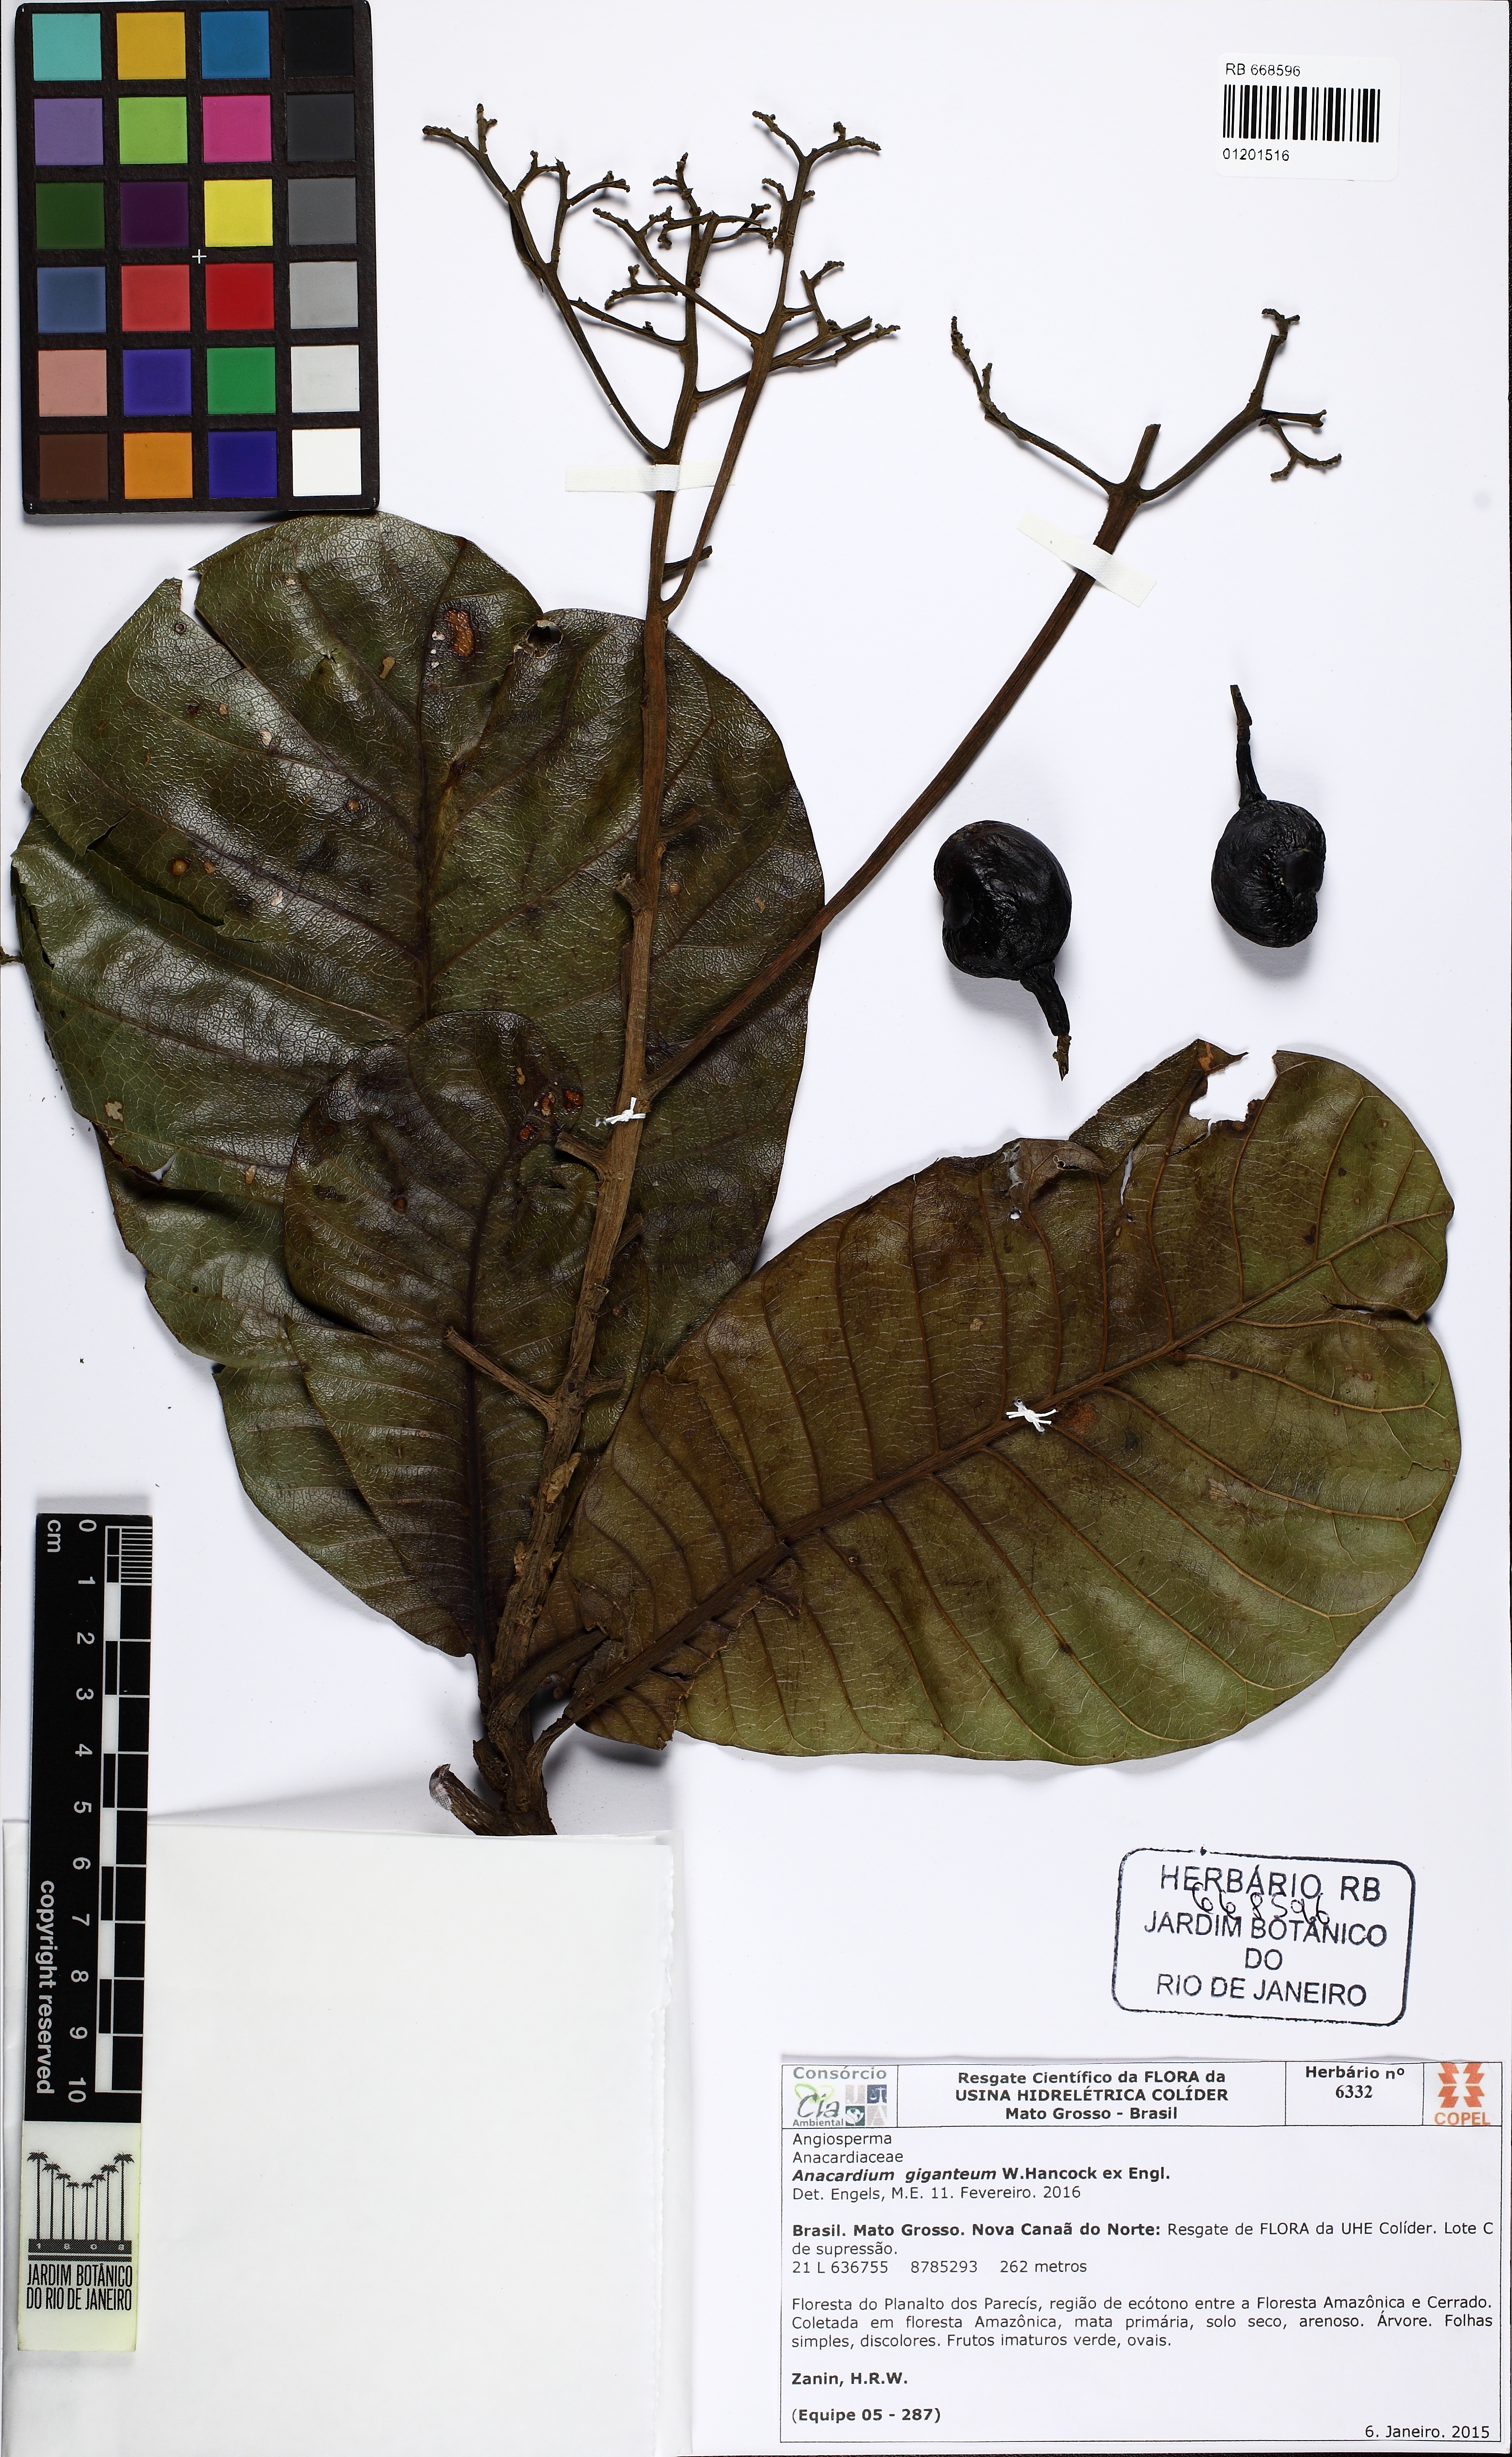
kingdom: Plantae
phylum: Tracheophyta
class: Magnoliopsida
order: Sapindales
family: Anacardiaceae
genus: Anacardium
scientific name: Anacardium giganteum
